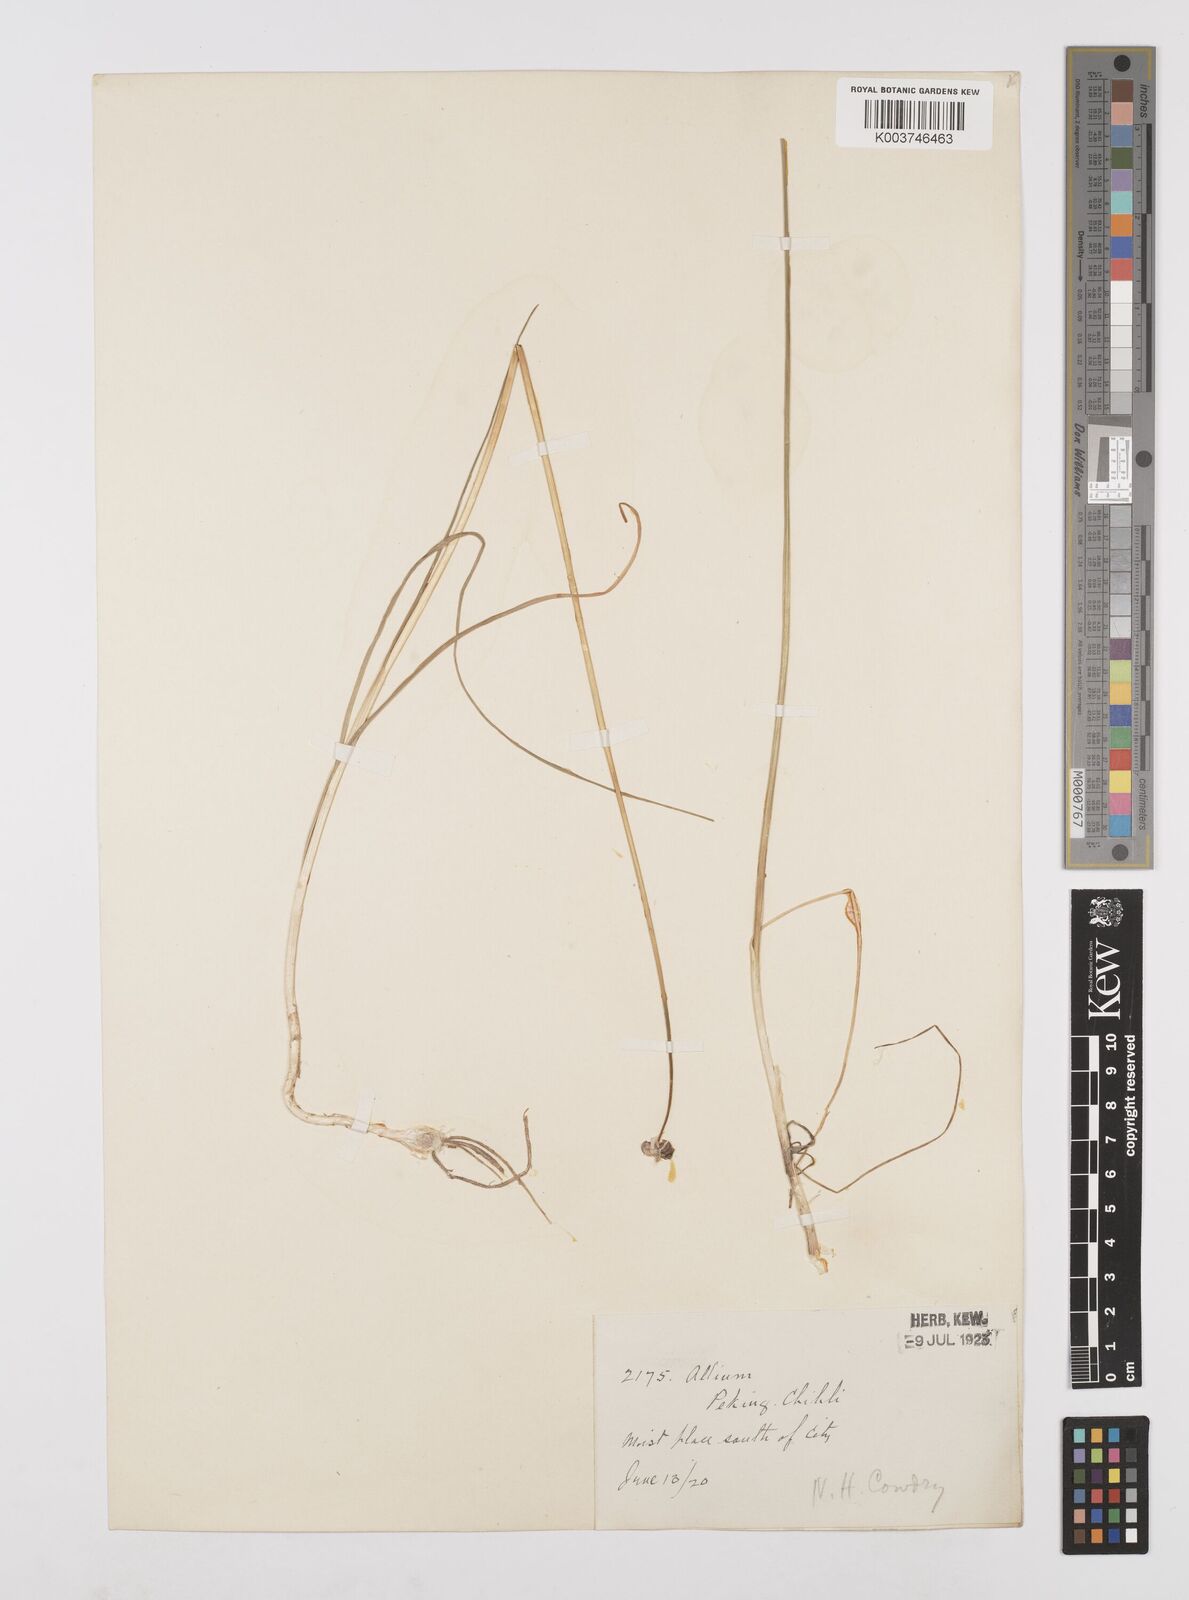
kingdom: Plantae
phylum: Tracheophyta
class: Liliopsida
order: Asparagales
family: Amaryllidaceae
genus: Allium
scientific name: Allium macrostemon
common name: Chinese garlic
